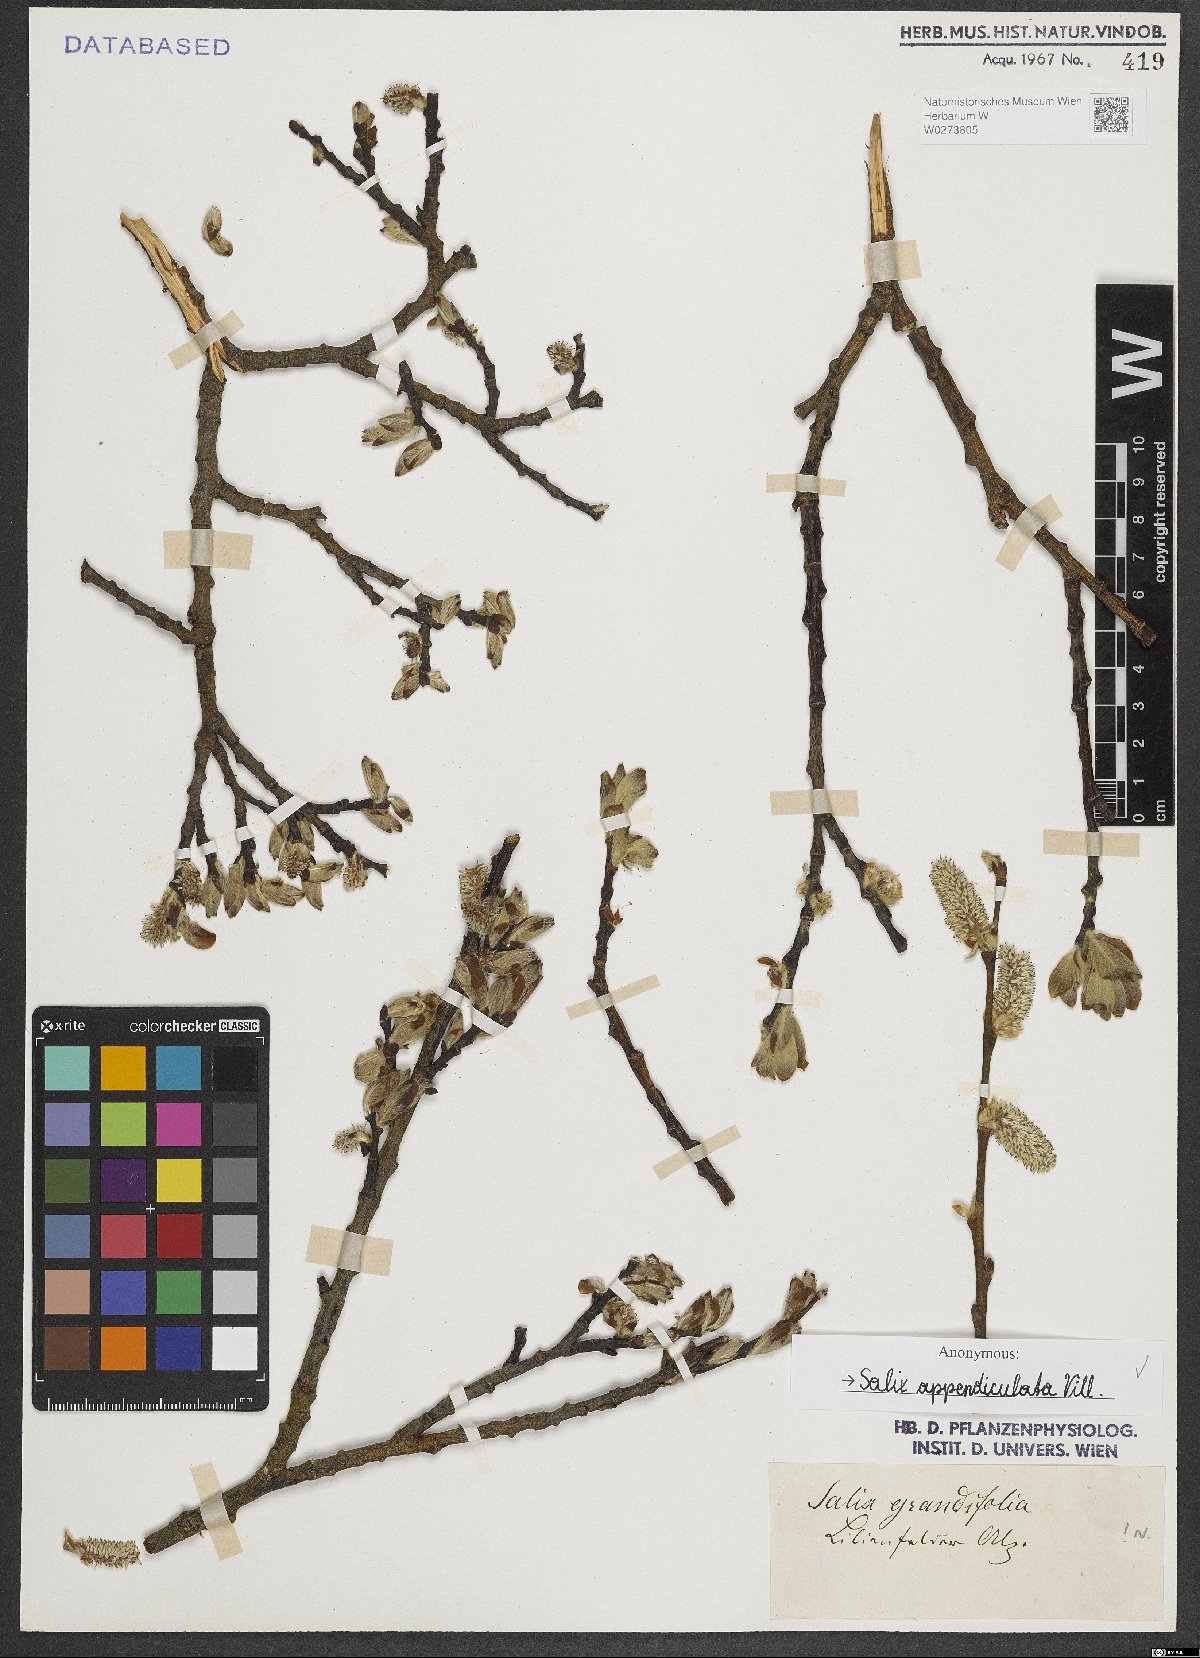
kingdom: Plantae
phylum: Tracheophyta
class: Magnoliopsida
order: Malpighiales
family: Salicaceae
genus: Salix
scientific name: Salix appendiculata
